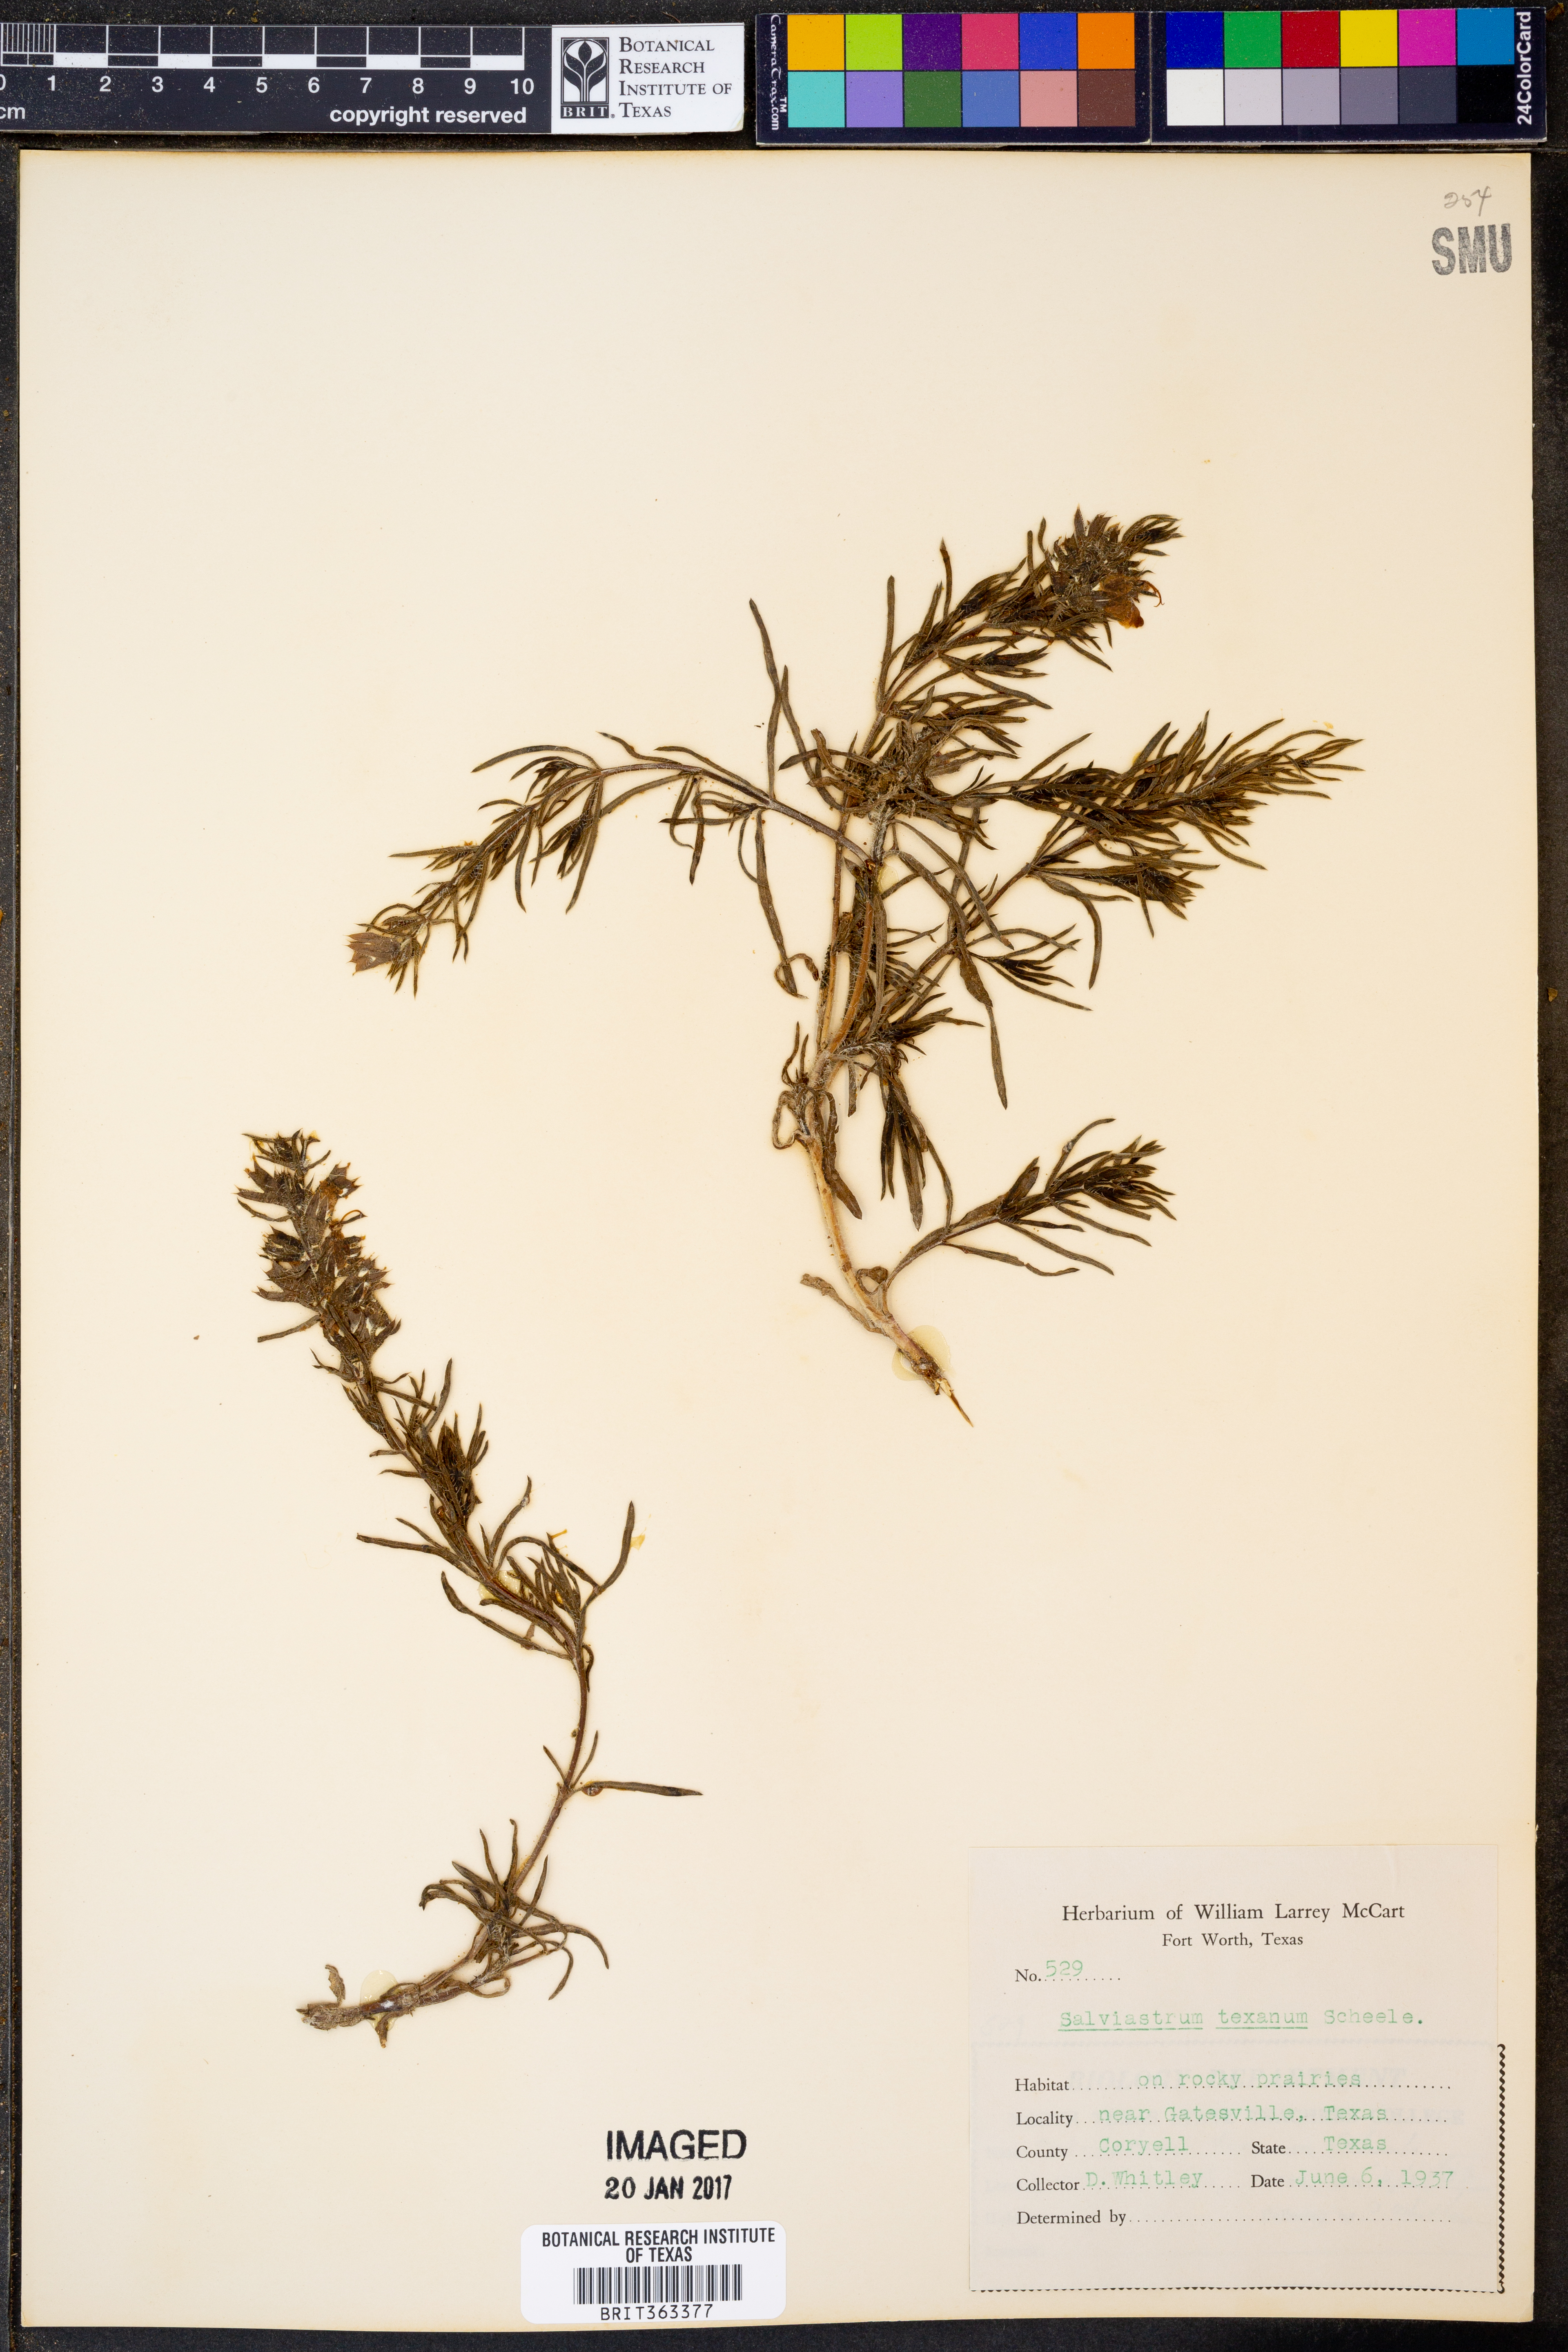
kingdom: Plantae
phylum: Tracheophyta
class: Magnoliopsida
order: Lamiales
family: Lamiaceae
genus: Salvia
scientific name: Salvia texana
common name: Texas sage
